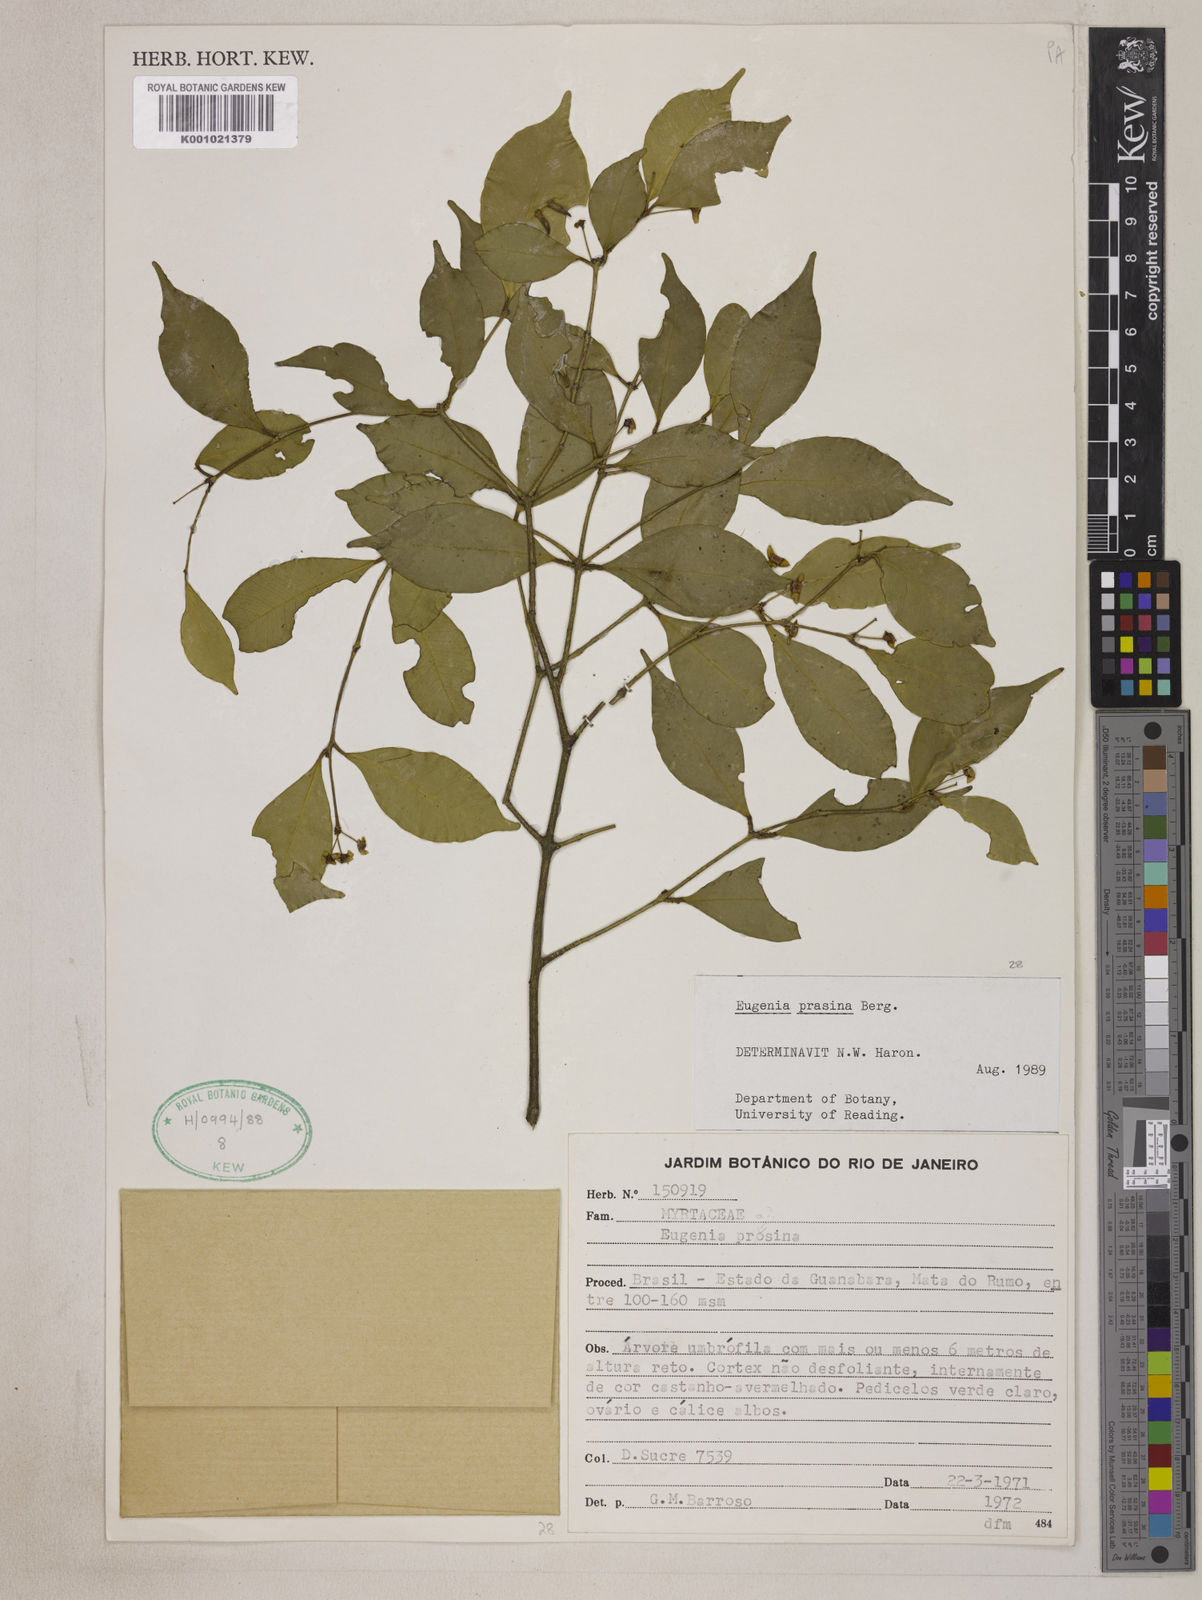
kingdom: Plantae
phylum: Tracheophyta
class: Magnoliopsida
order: Myrtales
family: Myrtaceae
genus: Eugenia
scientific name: Eugenia prasina
